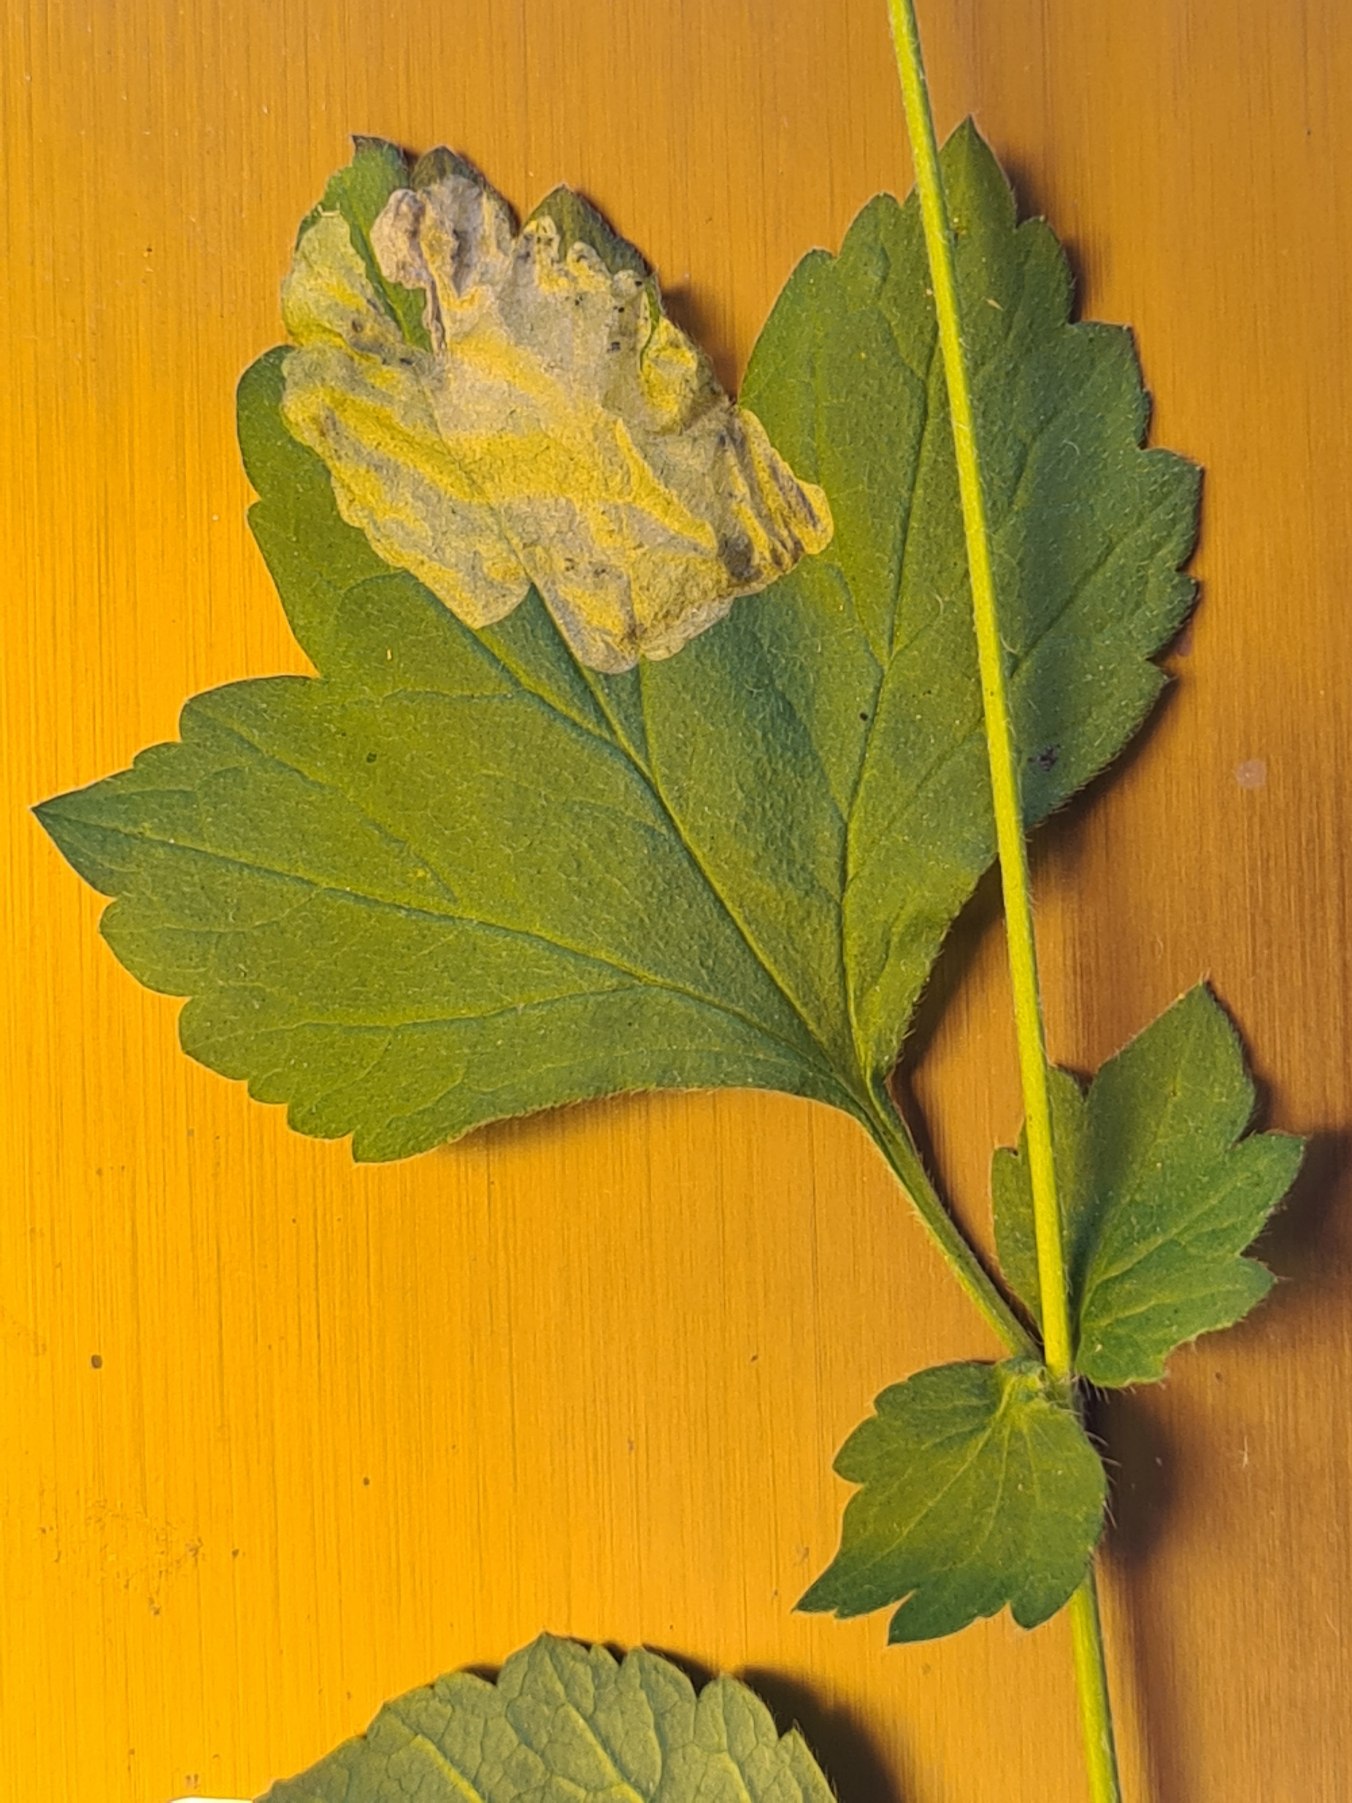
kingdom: Plantae
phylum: Tracheophyta
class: Magnoliopsida
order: Rosales
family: Rosaceae
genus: Geum
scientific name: Geum urbanum
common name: Feber-nellikerod
